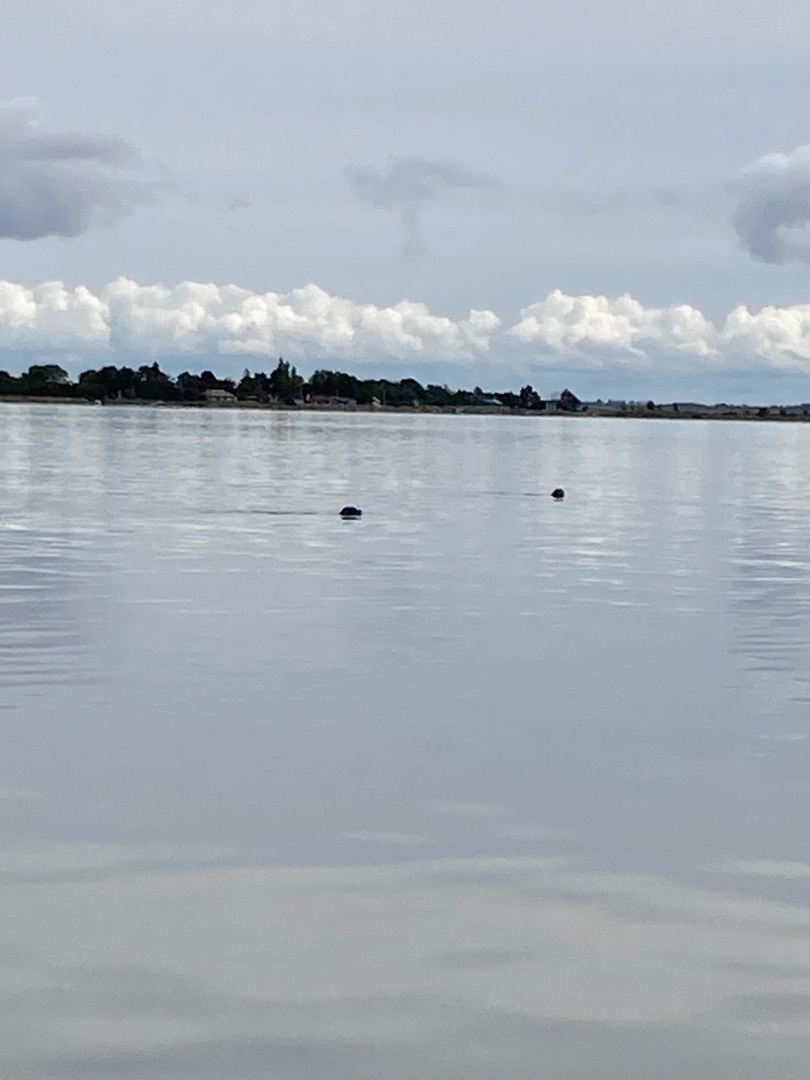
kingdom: Animalia
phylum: Chordata
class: Mammalia
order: Carnivora
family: Phocidae
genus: Phoca
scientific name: Phoca vitulina
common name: Spættet sæl
